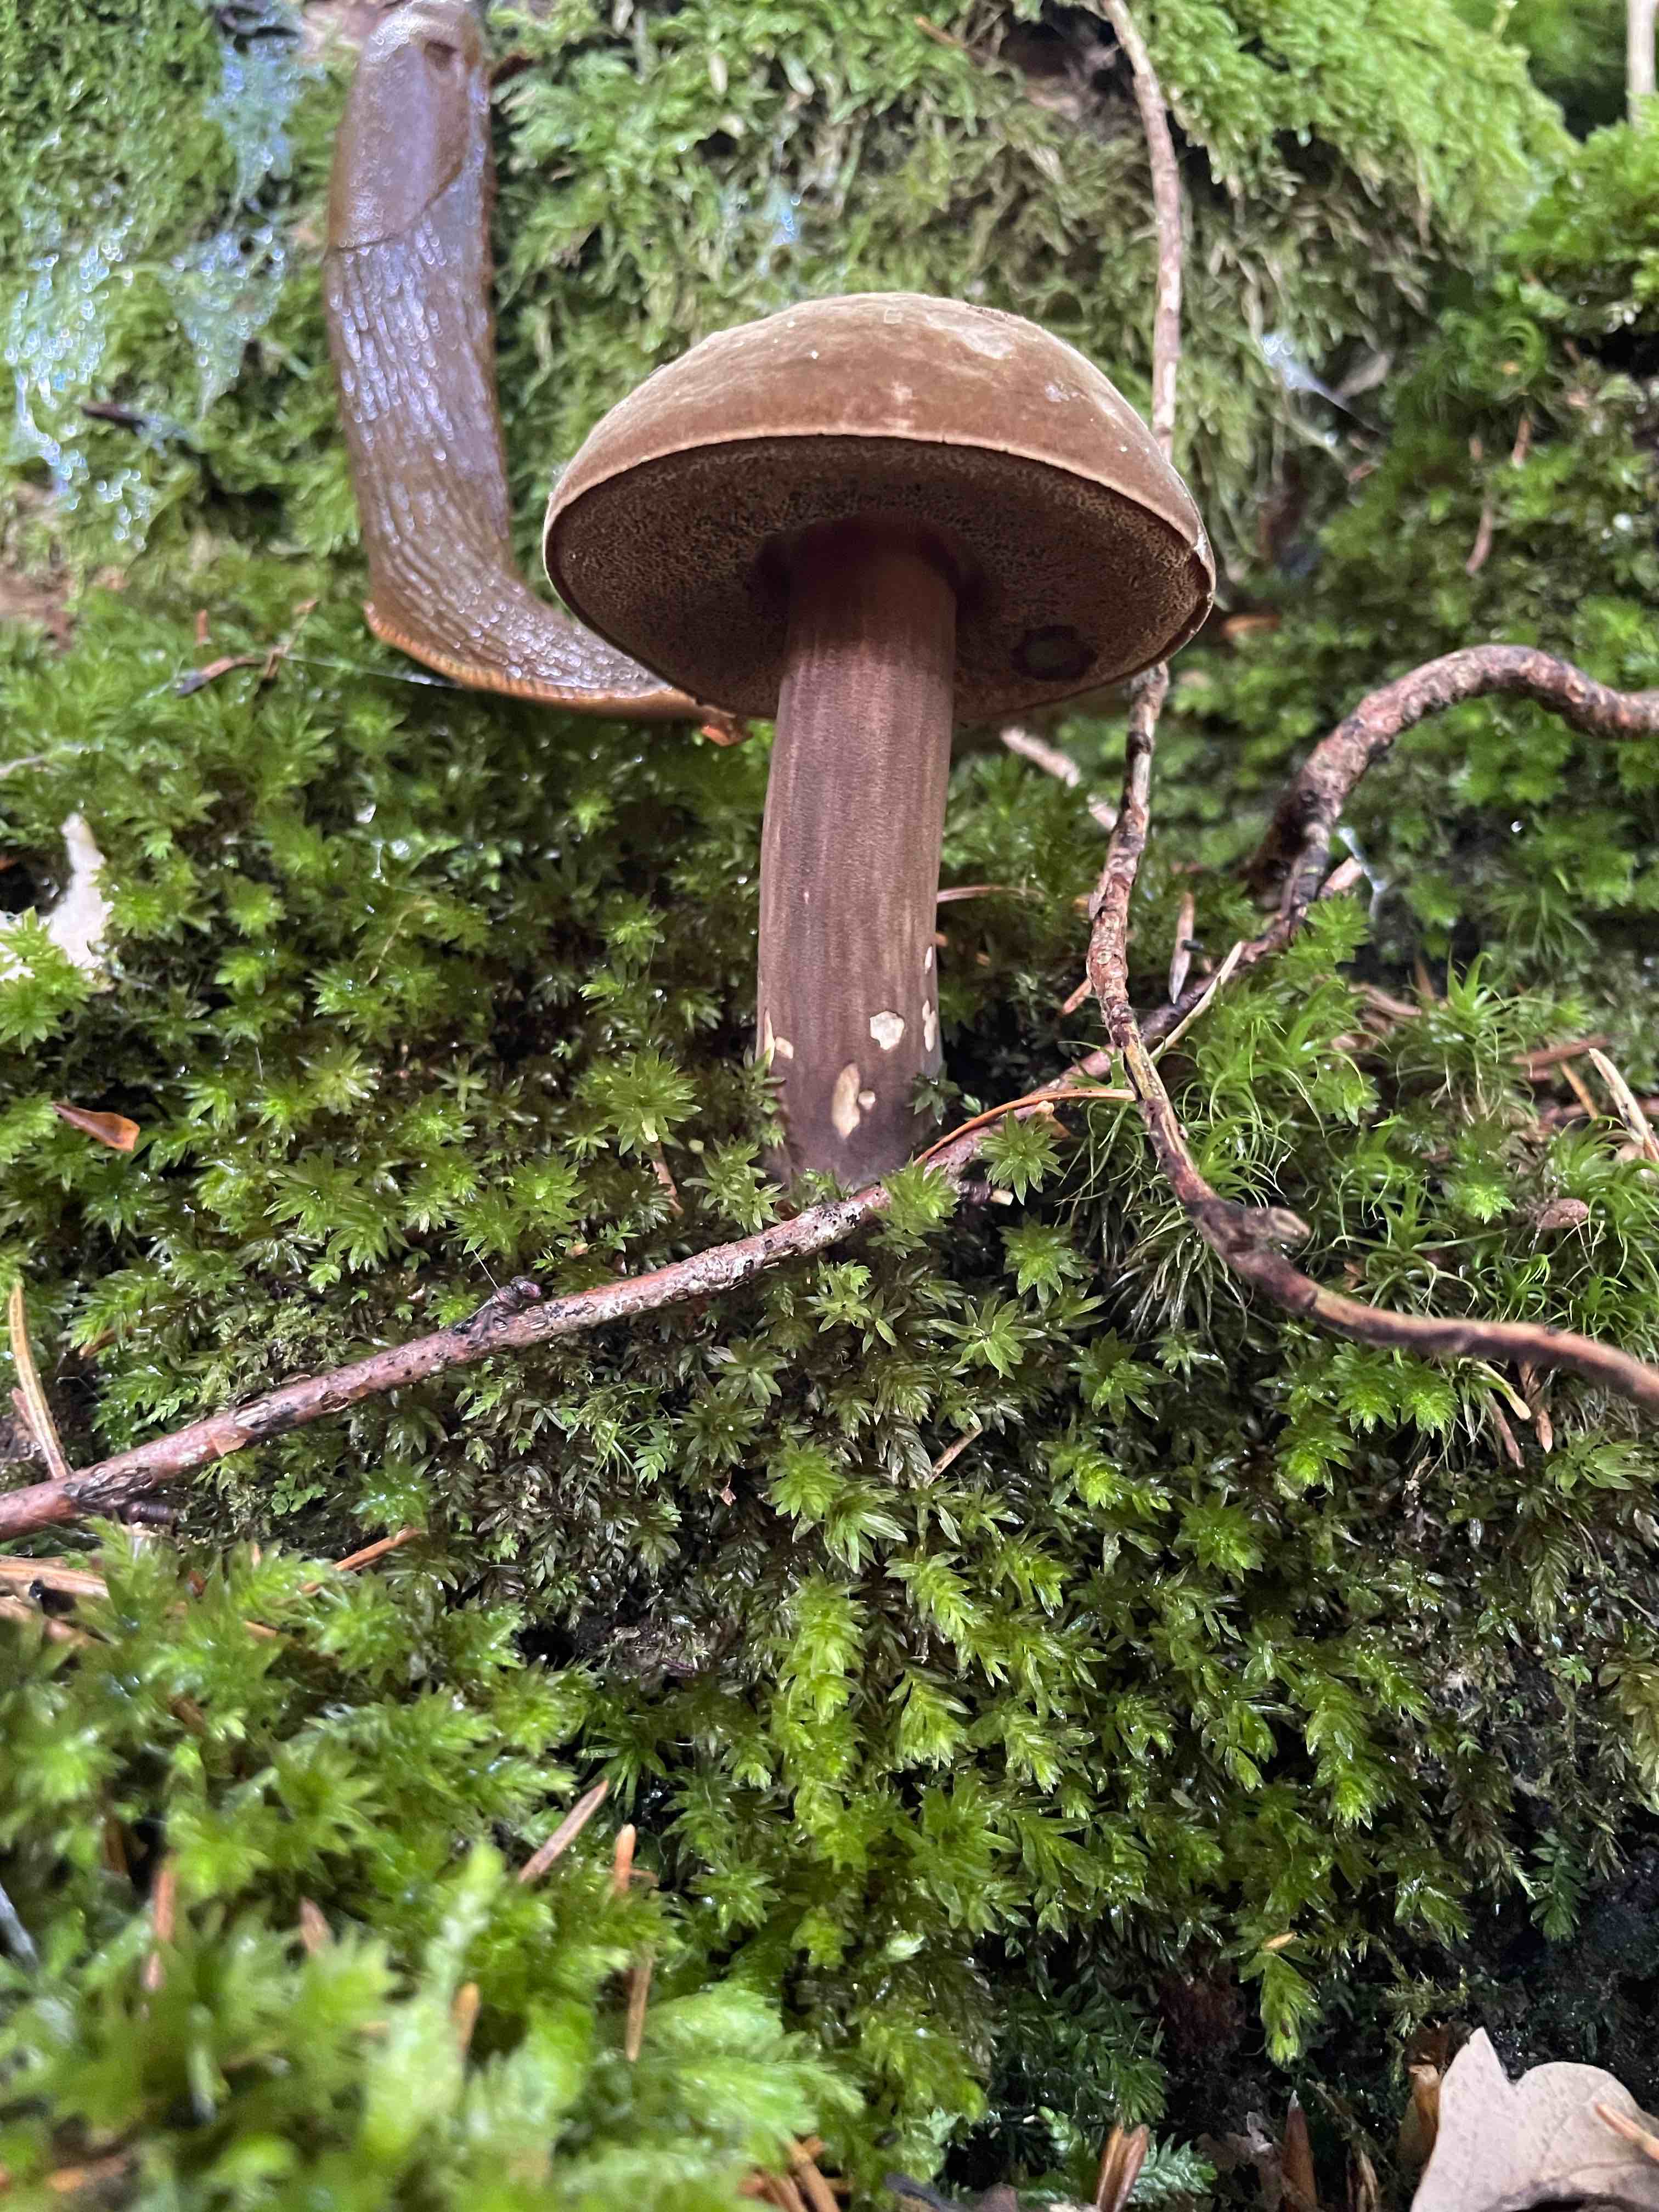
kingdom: Fungi
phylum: Basidiomycota
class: Agaricomycetes
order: Boletales
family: Boletaceae
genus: Porphyrellus
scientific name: Porphyrellus porphyrosporus
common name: sodrørhat
